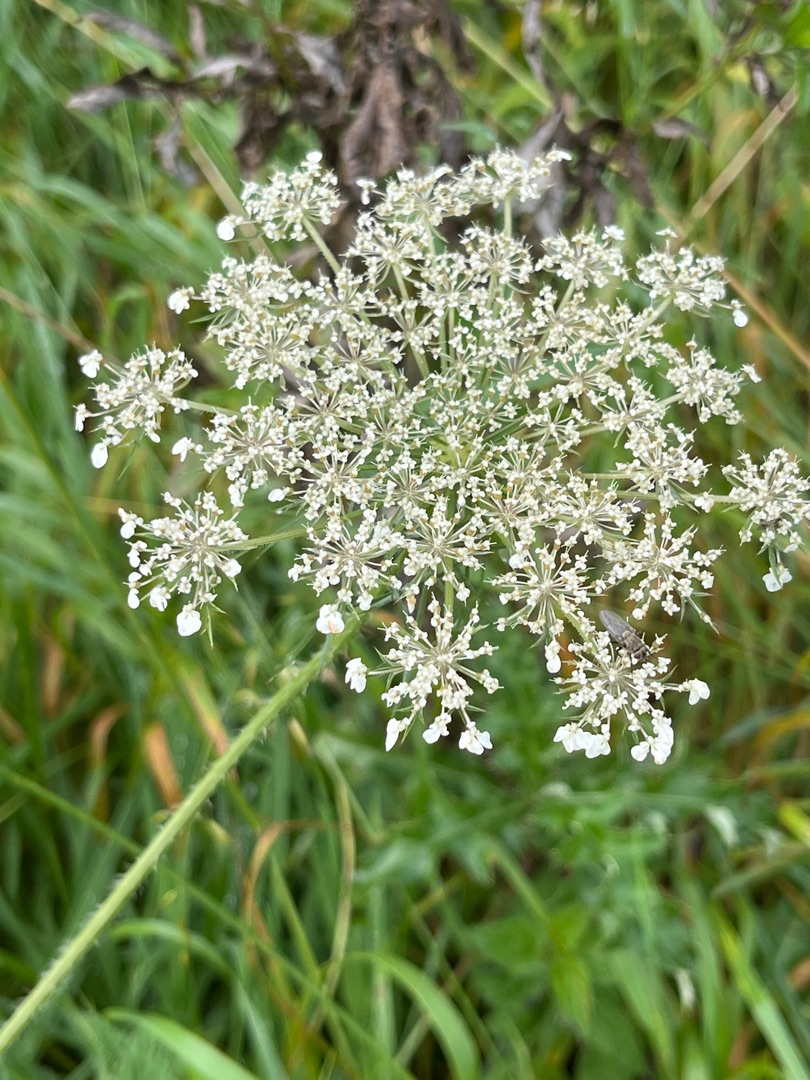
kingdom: Plantae
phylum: Tracheophyta
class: Magnoliopsida
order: Apiales
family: Apiaceae
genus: Daucus
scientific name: Daucus carota
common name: Gulerod
